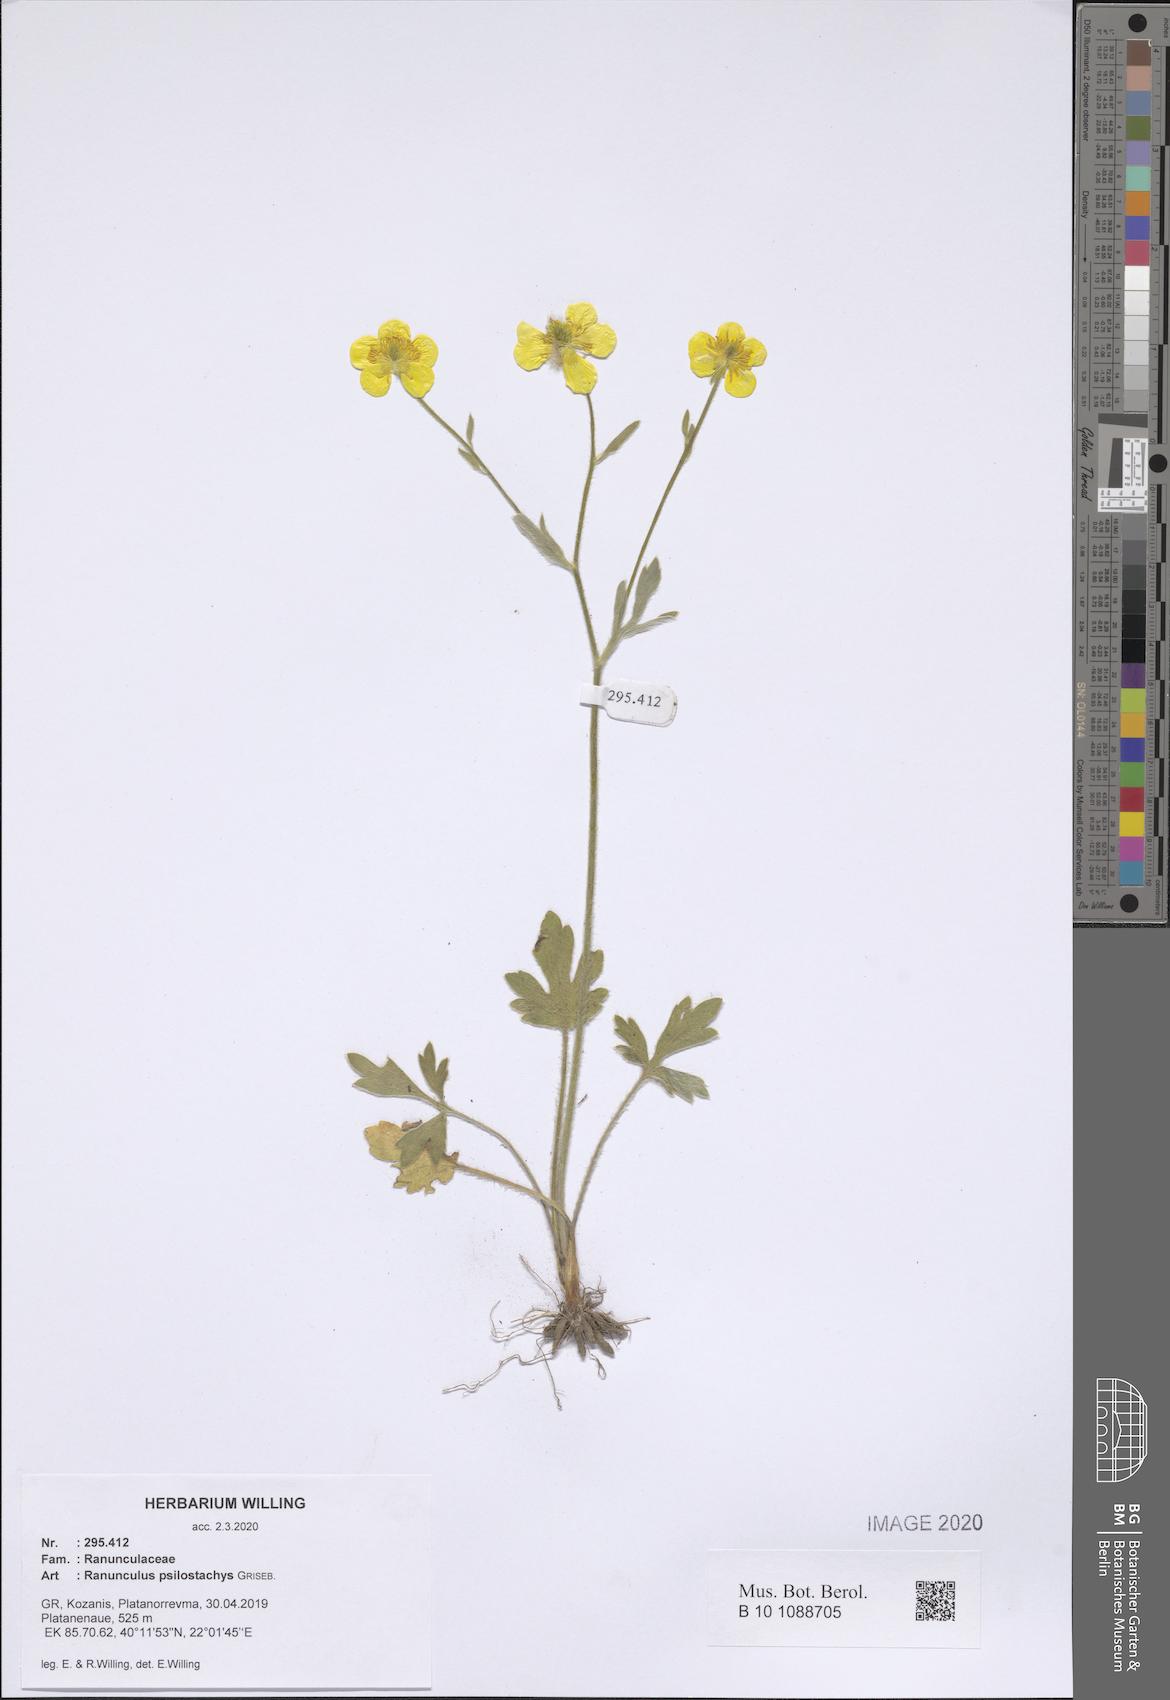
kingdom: Plantae
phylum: Tracheophyta
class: Magnoliopsida
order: Ranunculales
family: Ranunculaceae
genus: Ranunculus
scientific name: Ranunculus psilostachys
